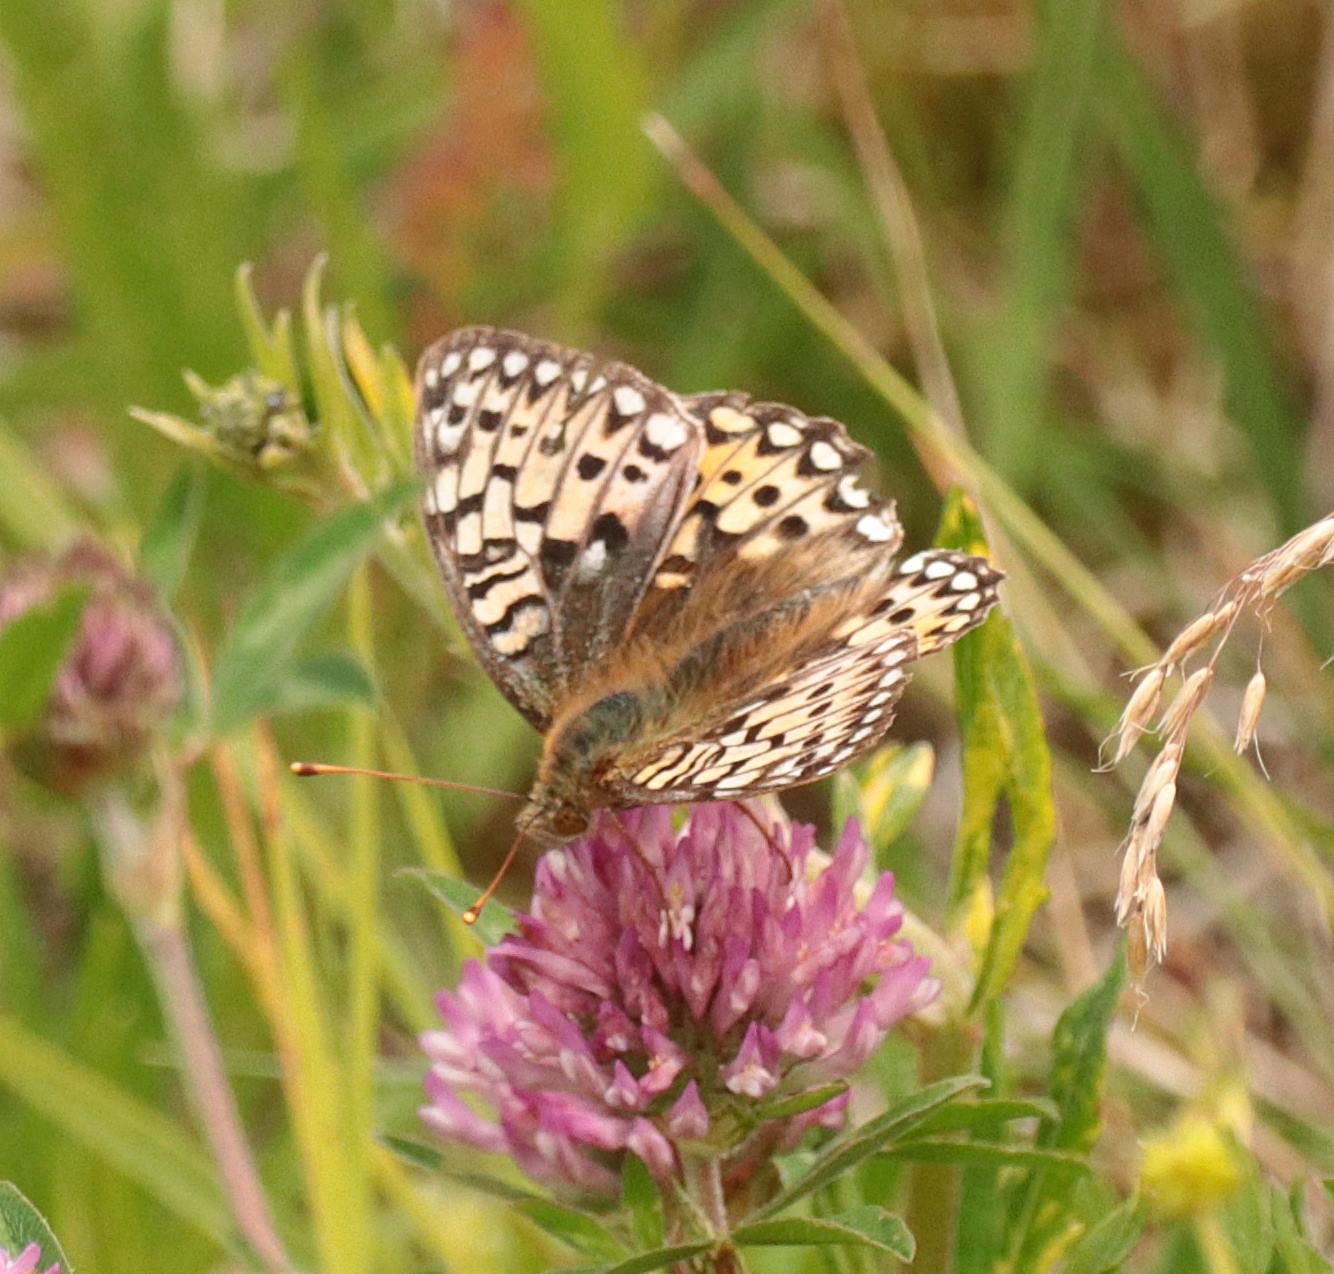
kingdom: Animalia
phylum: Arthropoda
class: Insecta
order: Lepidoptera
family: Nymphalidae
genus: Speyeria
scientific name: Speyeria aglaja
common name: Markperlemorsommerfugl
